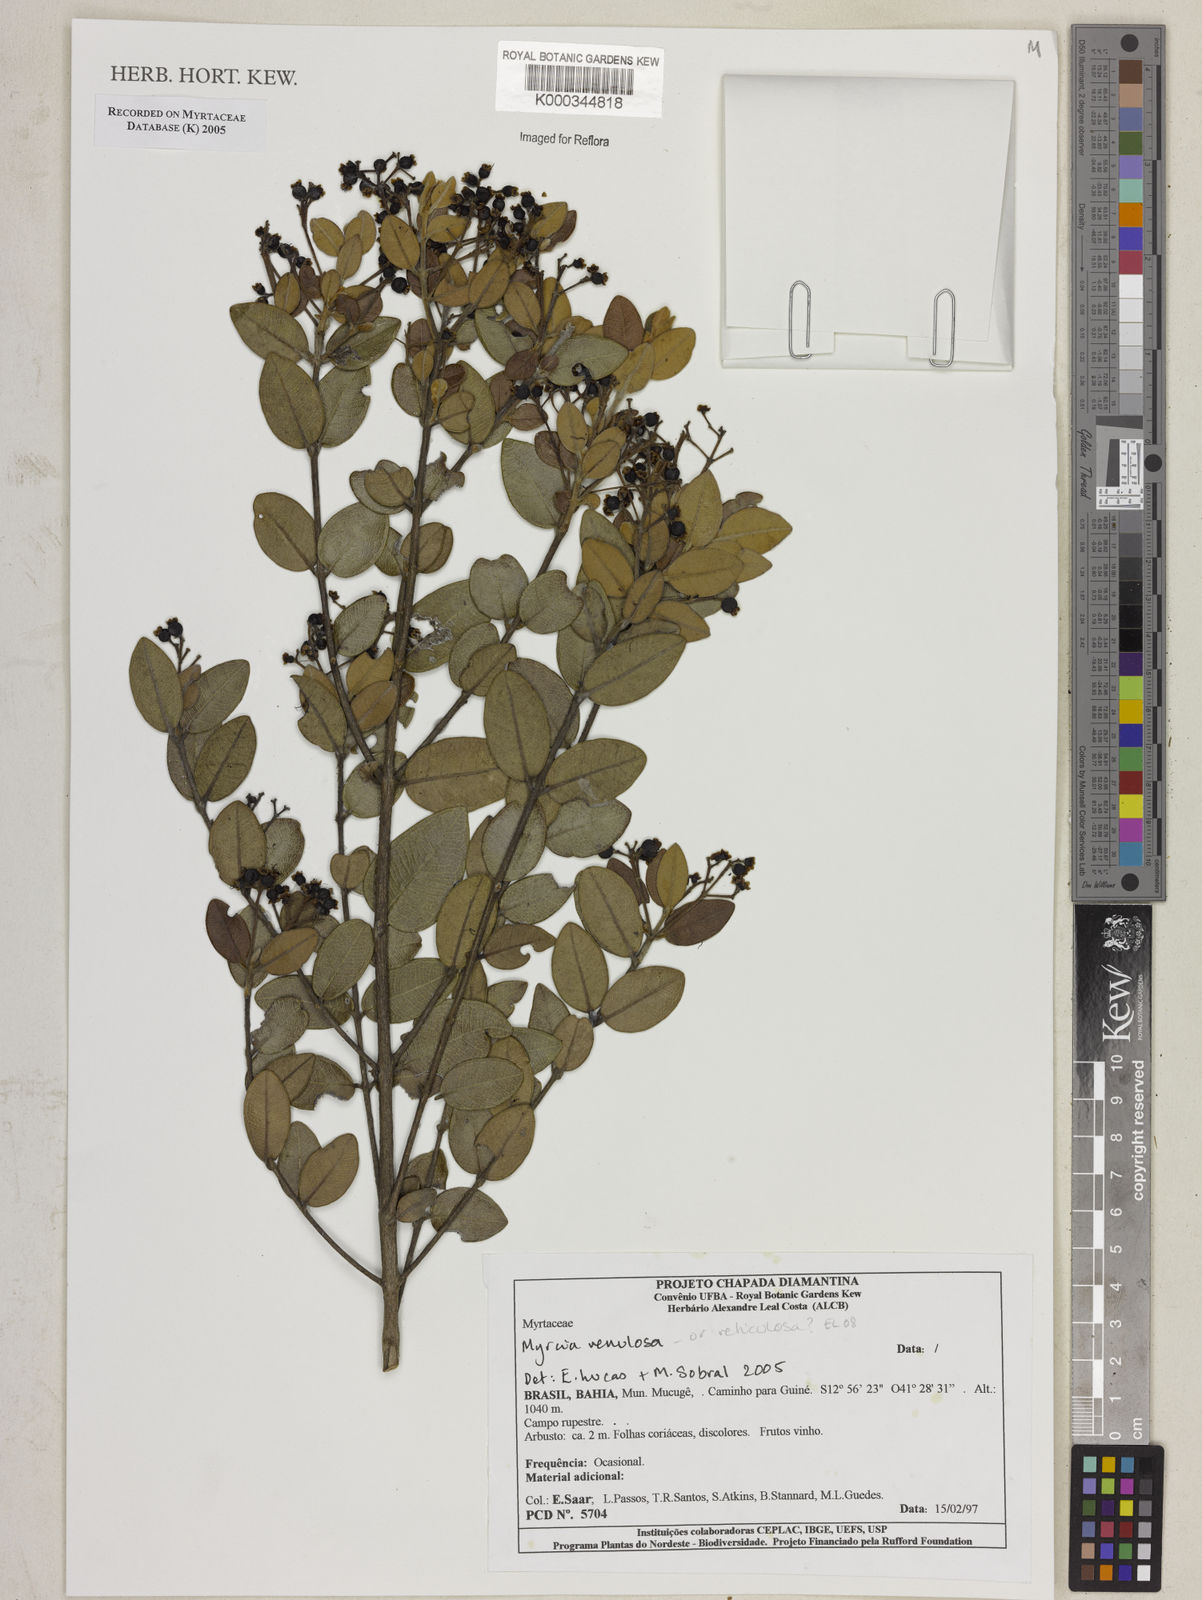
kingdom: Plantae
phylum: Tracheophyta
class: Magnoliopsida
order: Myrtales
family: Myrtaceae
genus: Myrcia
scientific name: Myrcia venulosa
